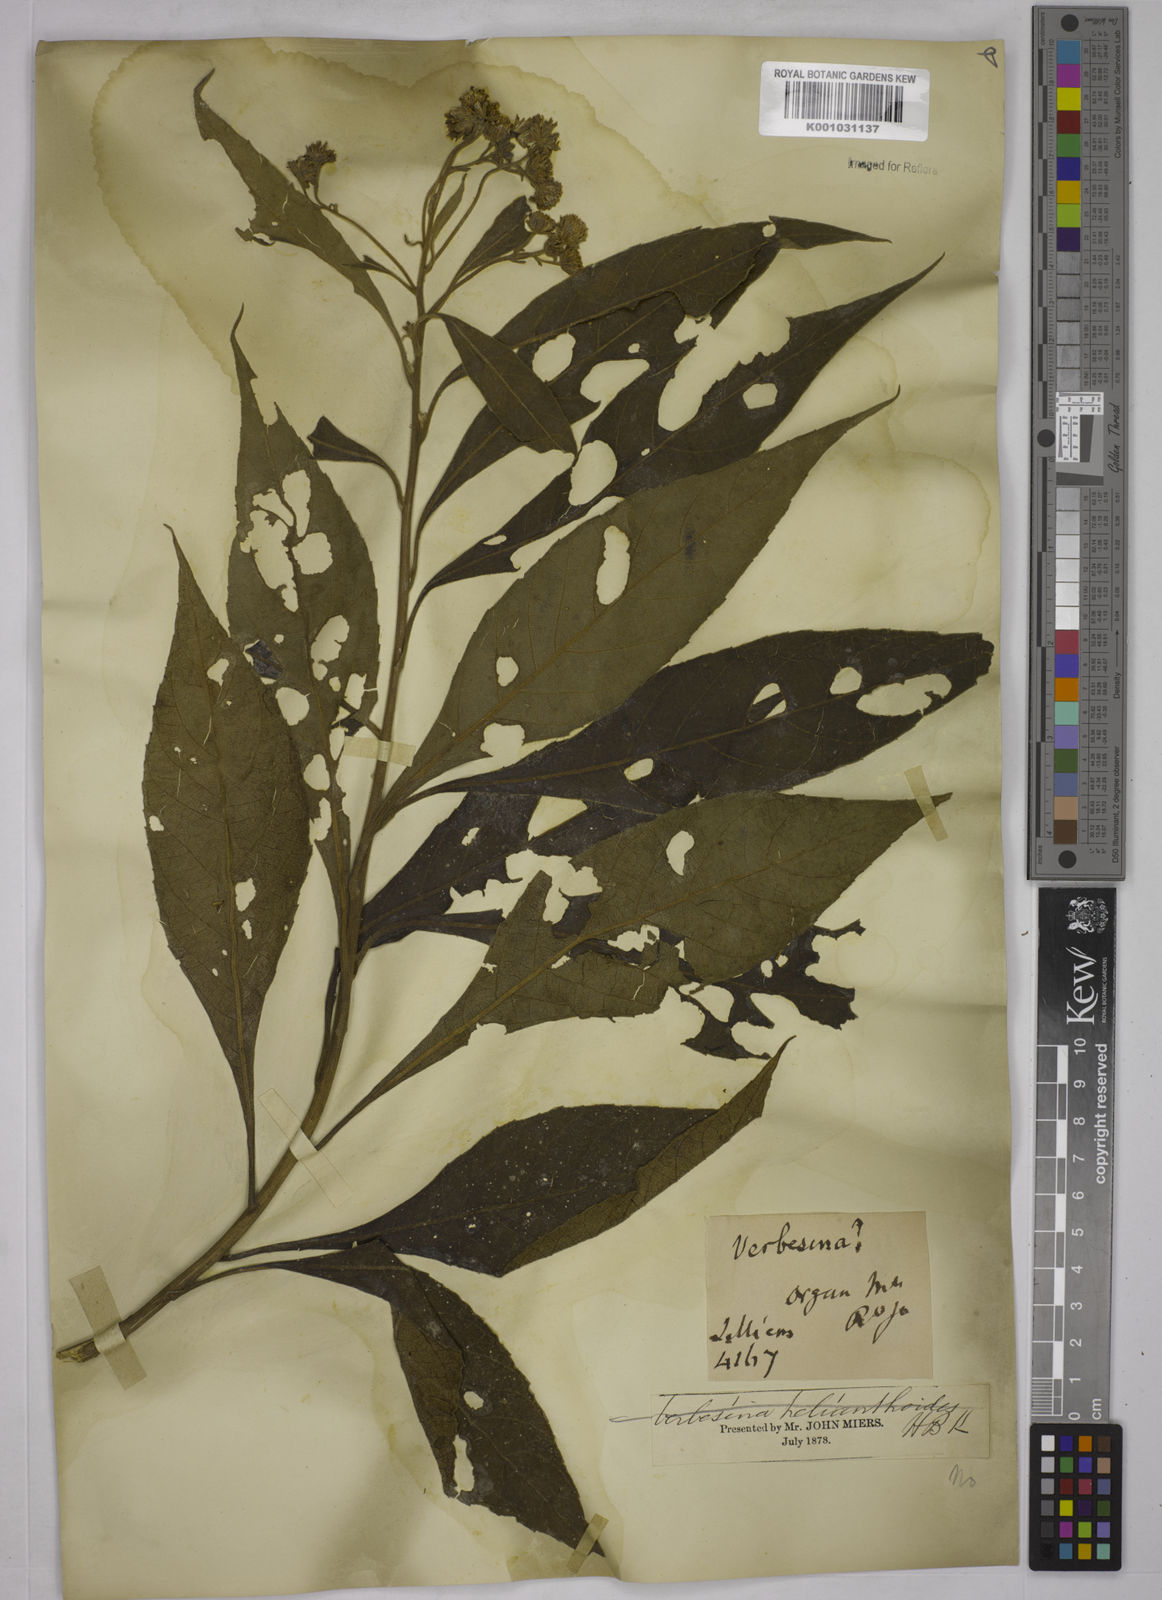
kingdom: Plantae
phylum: Tracheophyta
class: Magnoliopsida
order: Asterales
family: Asteraceae
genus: Verbesina
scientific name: Verbesina glabrata
